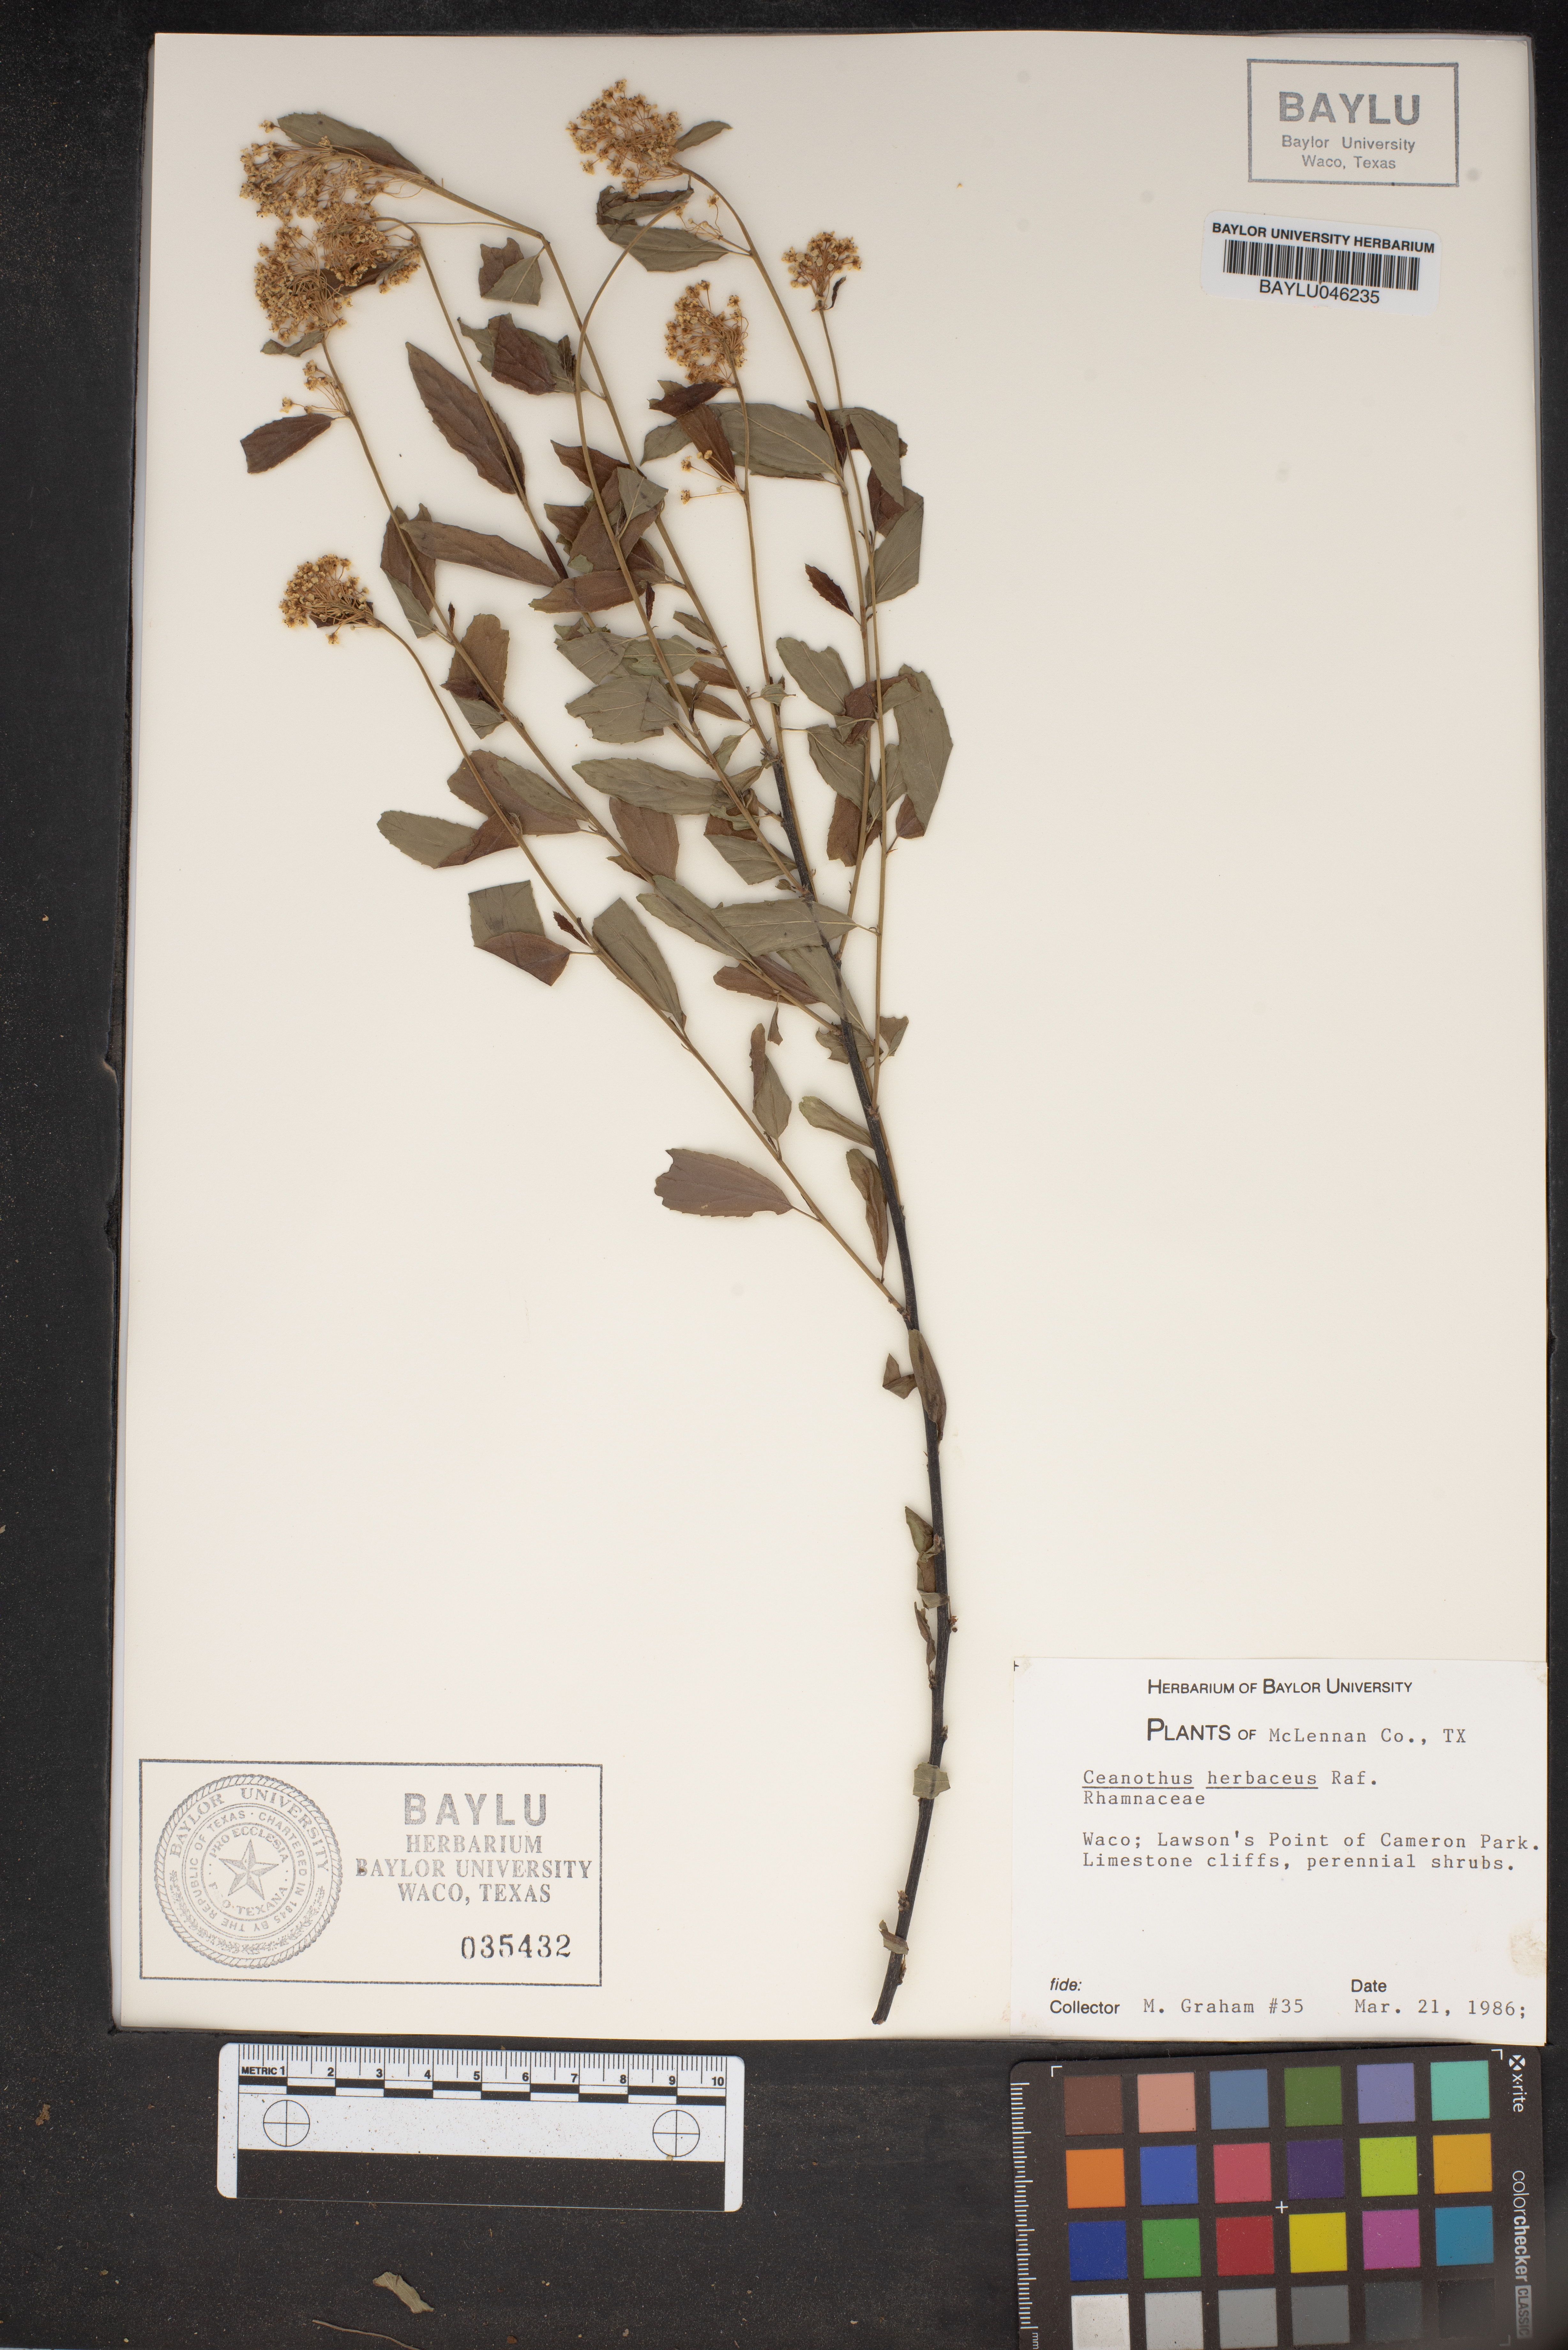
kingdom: Plantae
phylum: Tracheophyta
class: Magnoliopsida
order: Rosales
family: Rhamnaceae
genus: Ceanothus
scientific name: Ceanothus herbaceus
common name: Inland ceanothus
